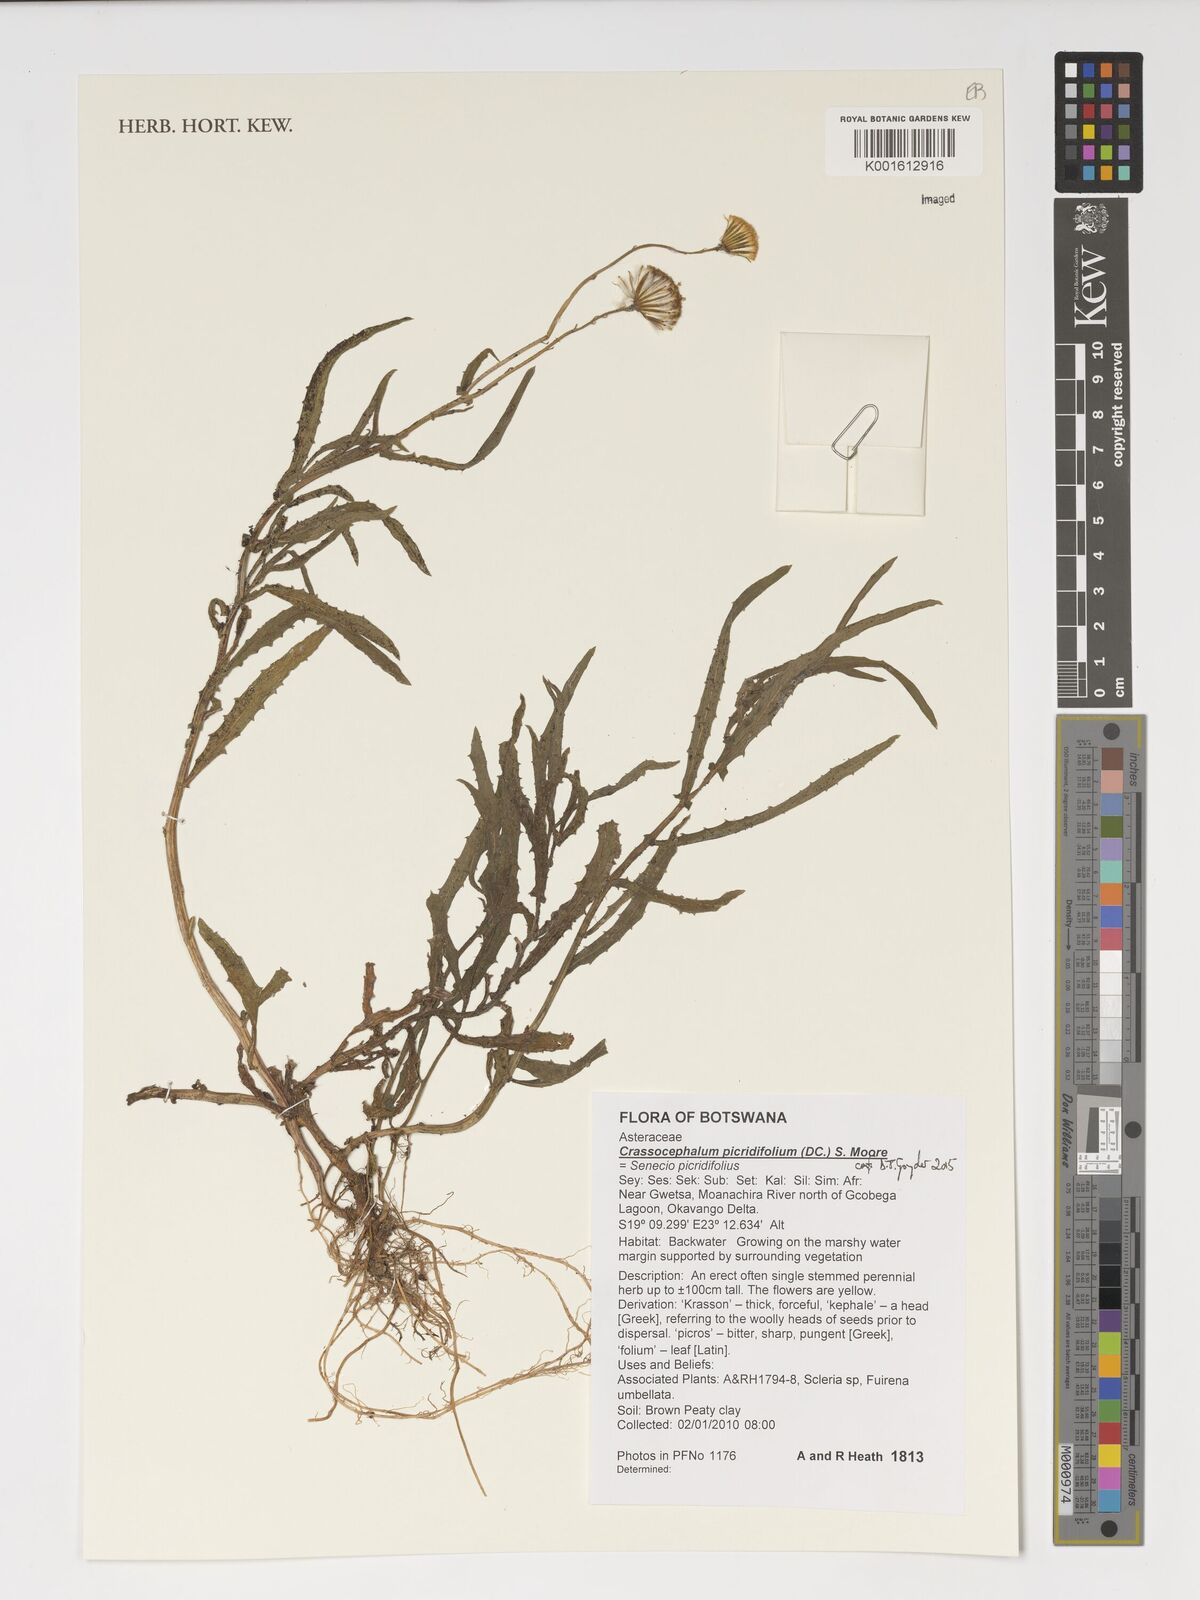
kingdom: Plantae
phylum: Tracheophyta
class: Magnoliopsida
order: Asterales
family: Asteraceae
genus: Crassocephalum
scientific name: Crassocephalum picridifolium
